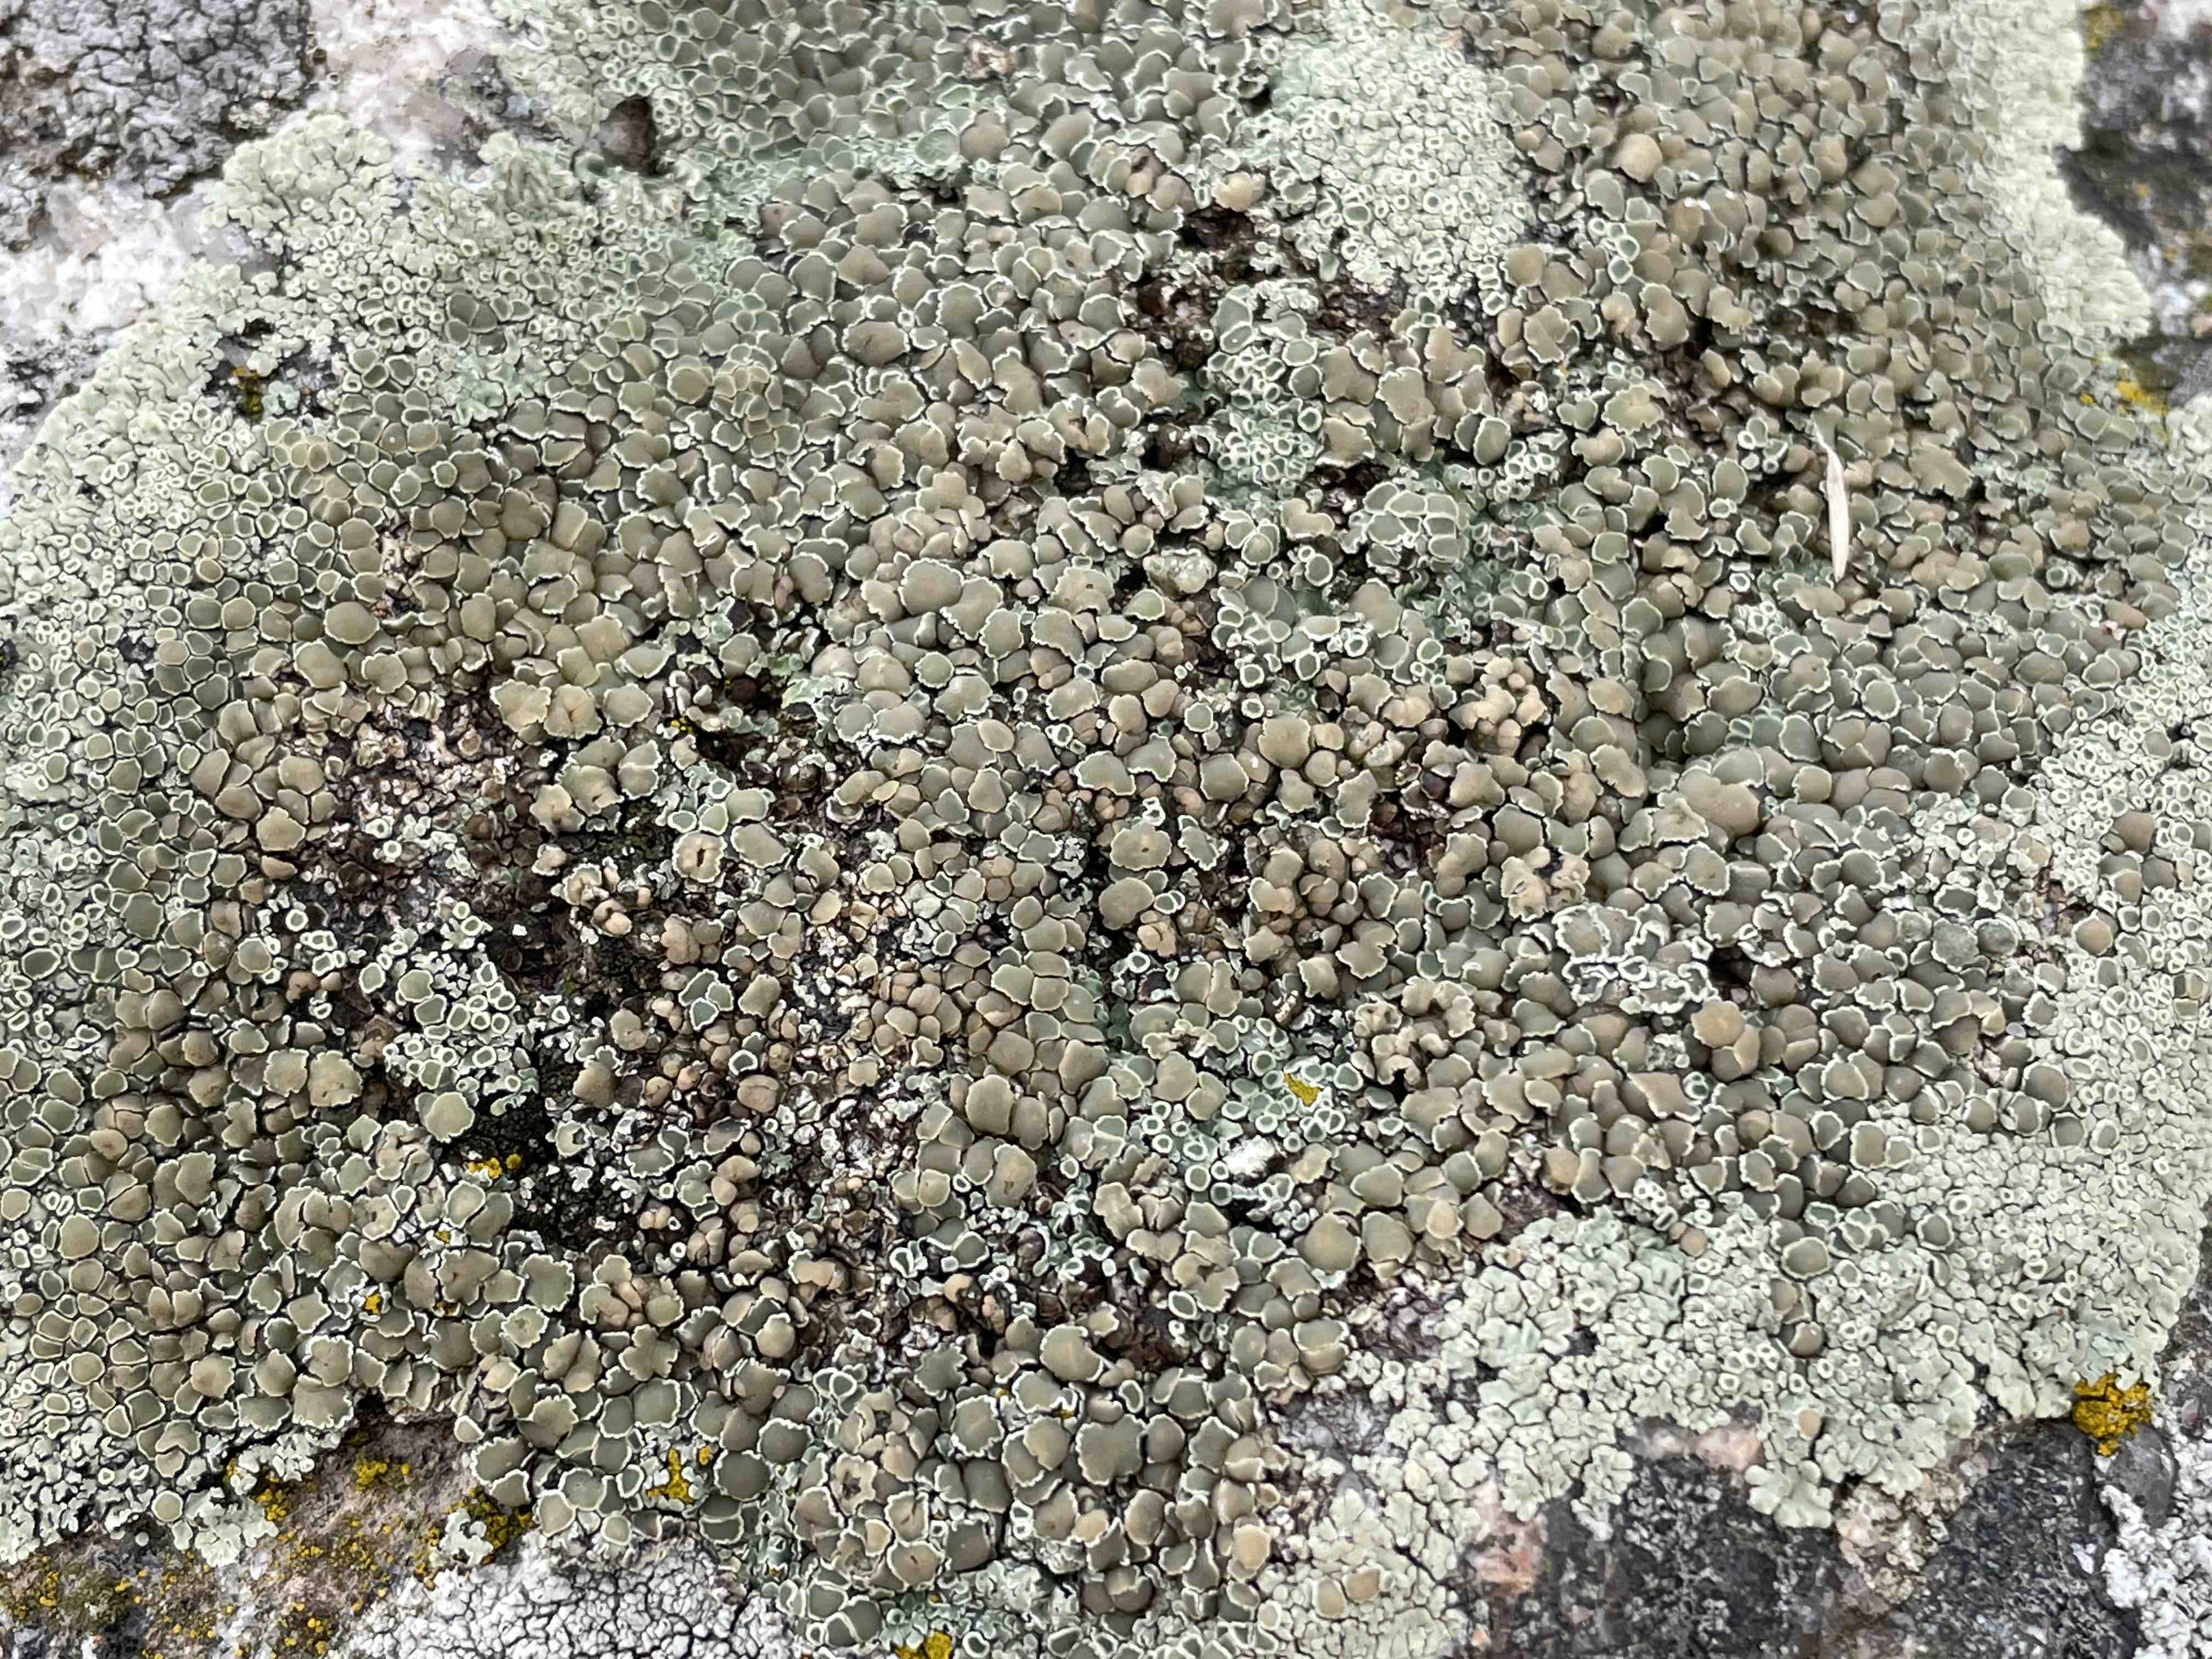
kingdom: Fungi
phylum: Ascomycota
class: Lecanoromycetes
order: Lecanorales
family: Lecanoraceae
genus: Protoparmeliopsis
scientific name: Protoparmeliopsis muralis
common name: randfliget kantskivelav
